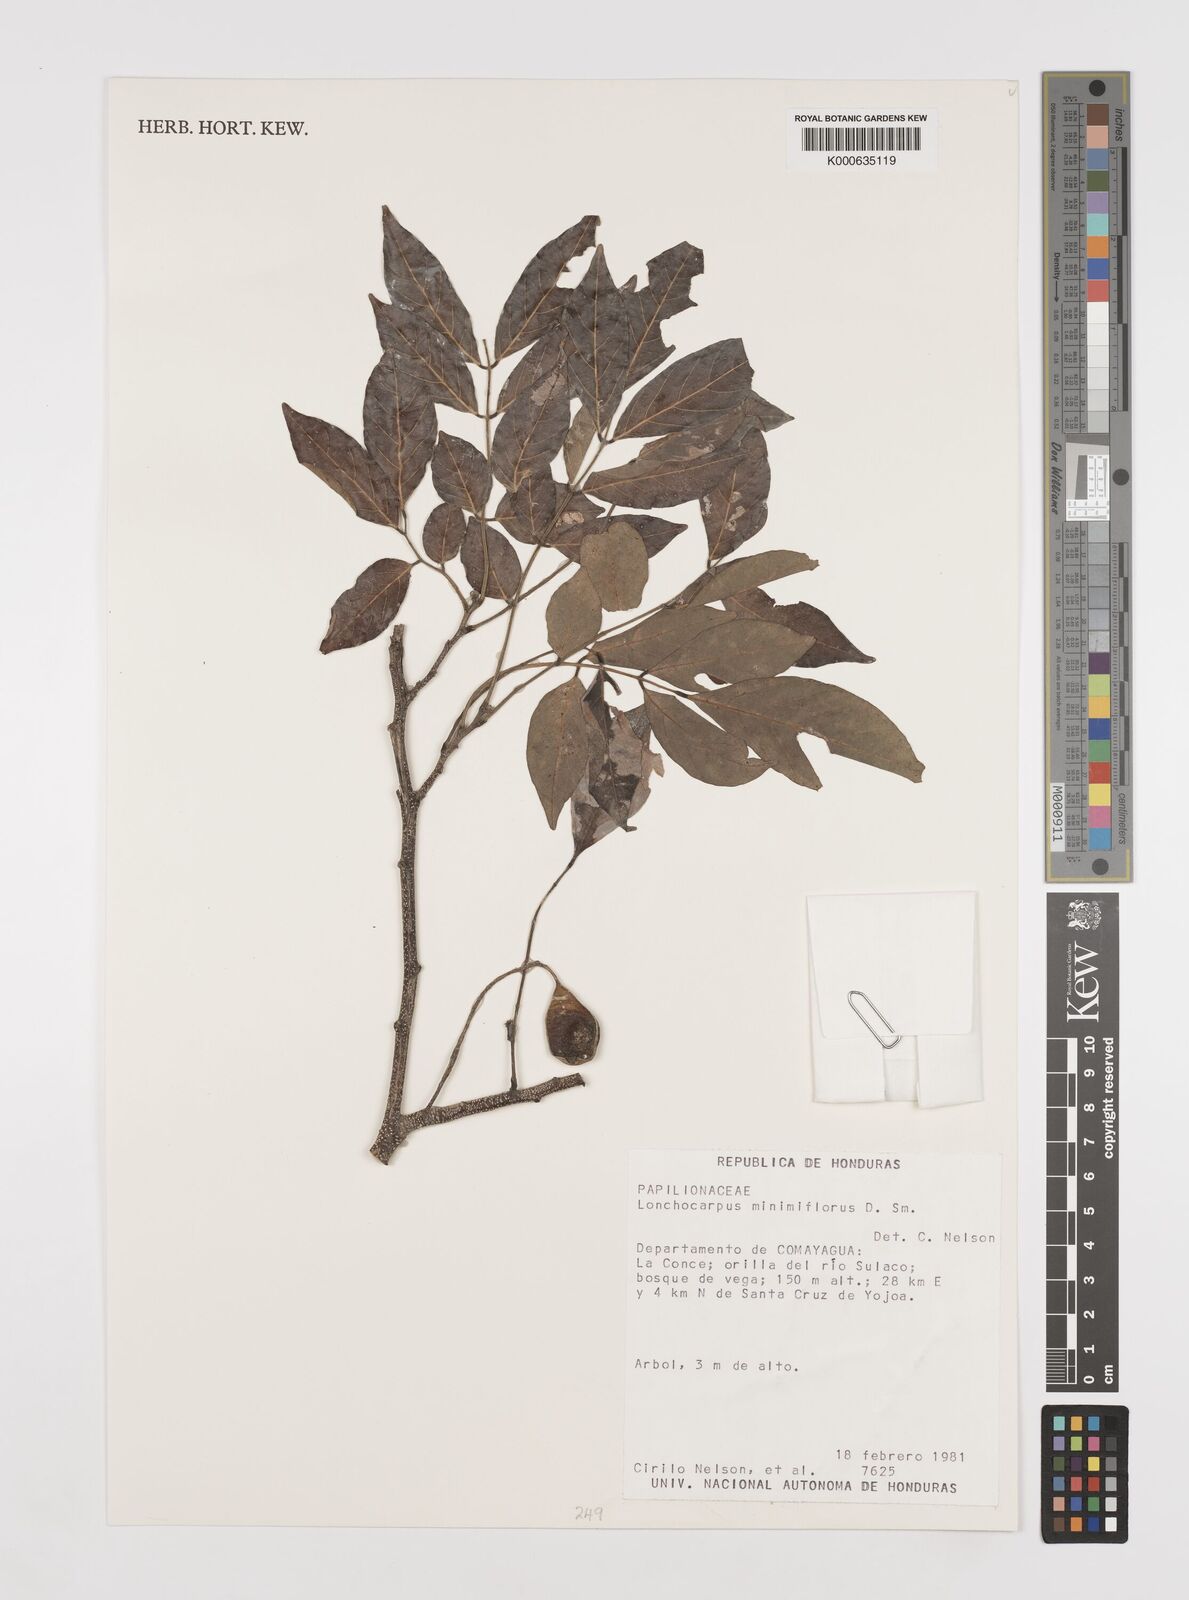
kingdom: Plantae
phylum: Tracheophyta
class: Magnoliopsida
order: Fabales
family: Fabaceae
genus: Lonchocarpus
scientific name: Lonchocarpus minimiflorus
